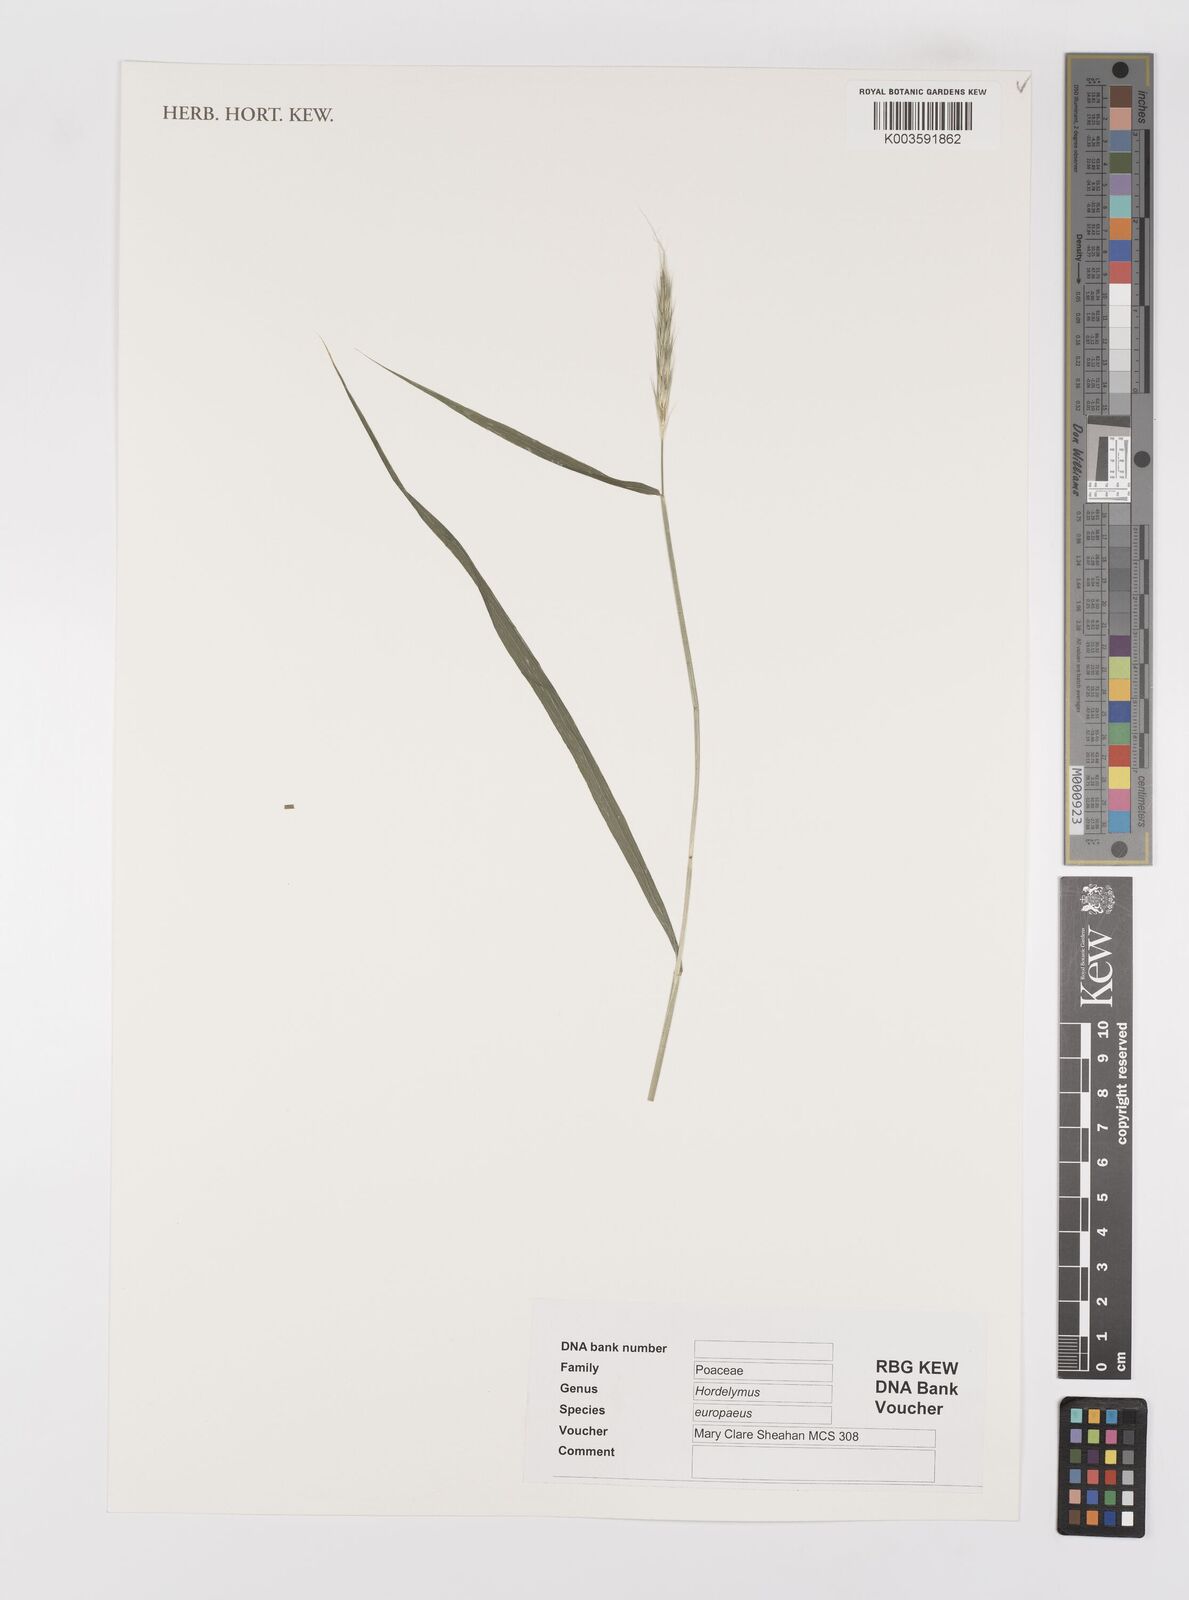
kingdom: Plantae
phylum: Tracheophyta
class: Liliopsida
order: Poales
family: Poaceae
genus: Hordelymus
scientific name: Hordelymus europaeus
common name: Wood-barley
